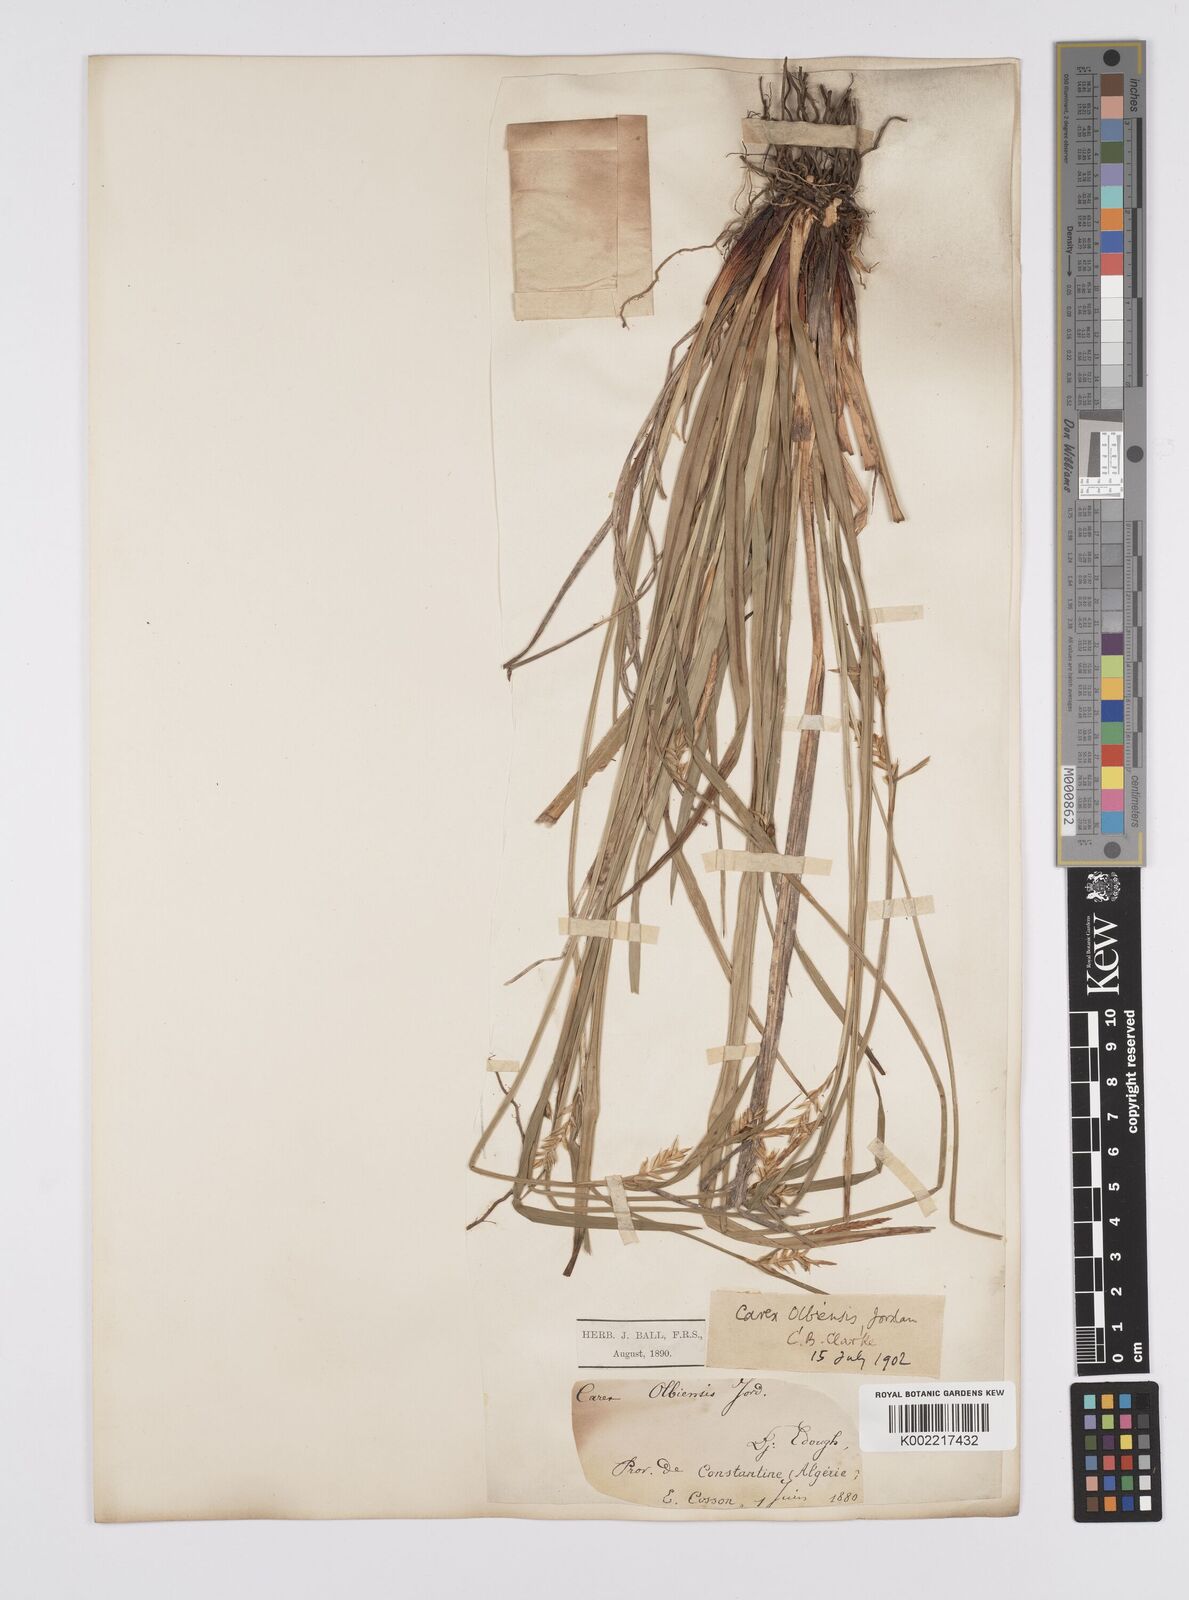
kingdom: Plantae
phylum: Tracheophyta
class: Liliopsida
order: Poales
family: Cyperaceae
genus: Carex
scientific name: Carex olbiensis
